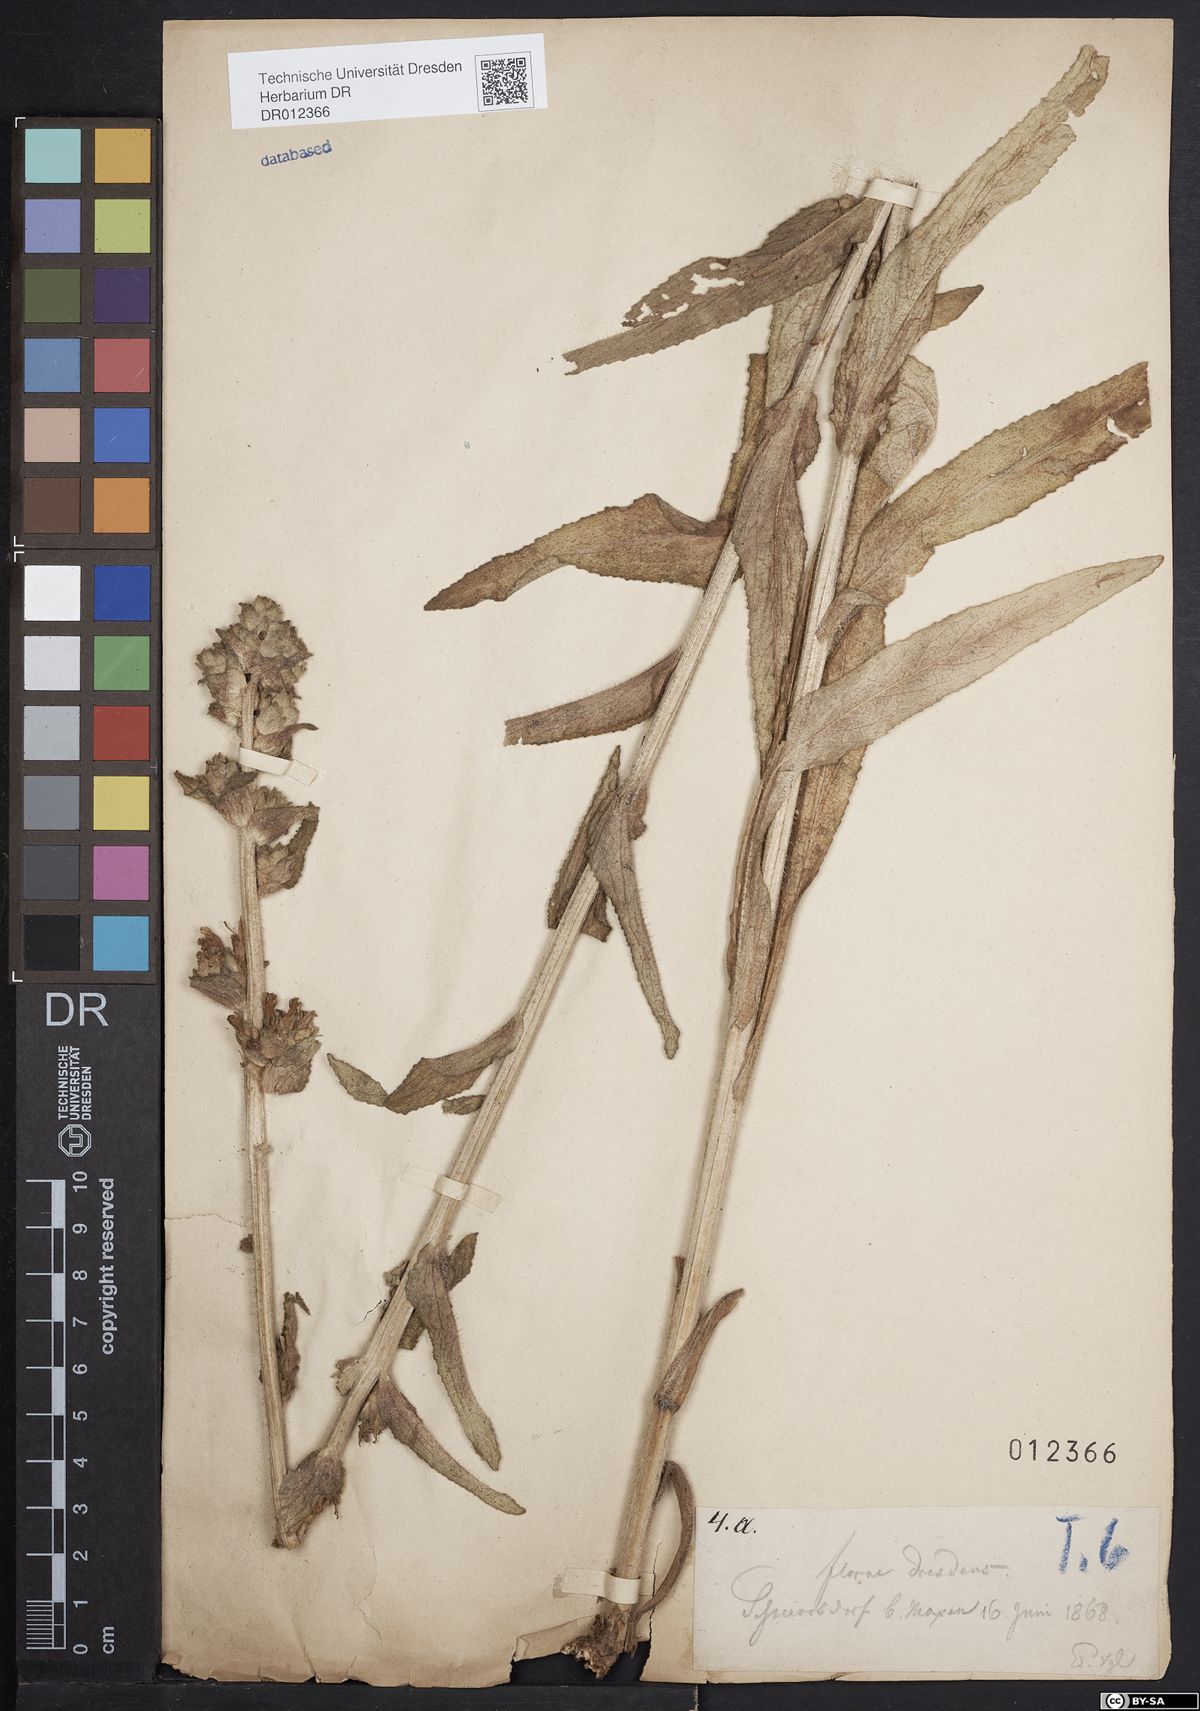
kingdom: Plantae
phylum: Tracheophyta
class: Magnoliopsida
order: Asterales
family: Campanulaceae
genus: Campanula
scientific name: Campanula cervicaria
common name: Bristly bellflower
